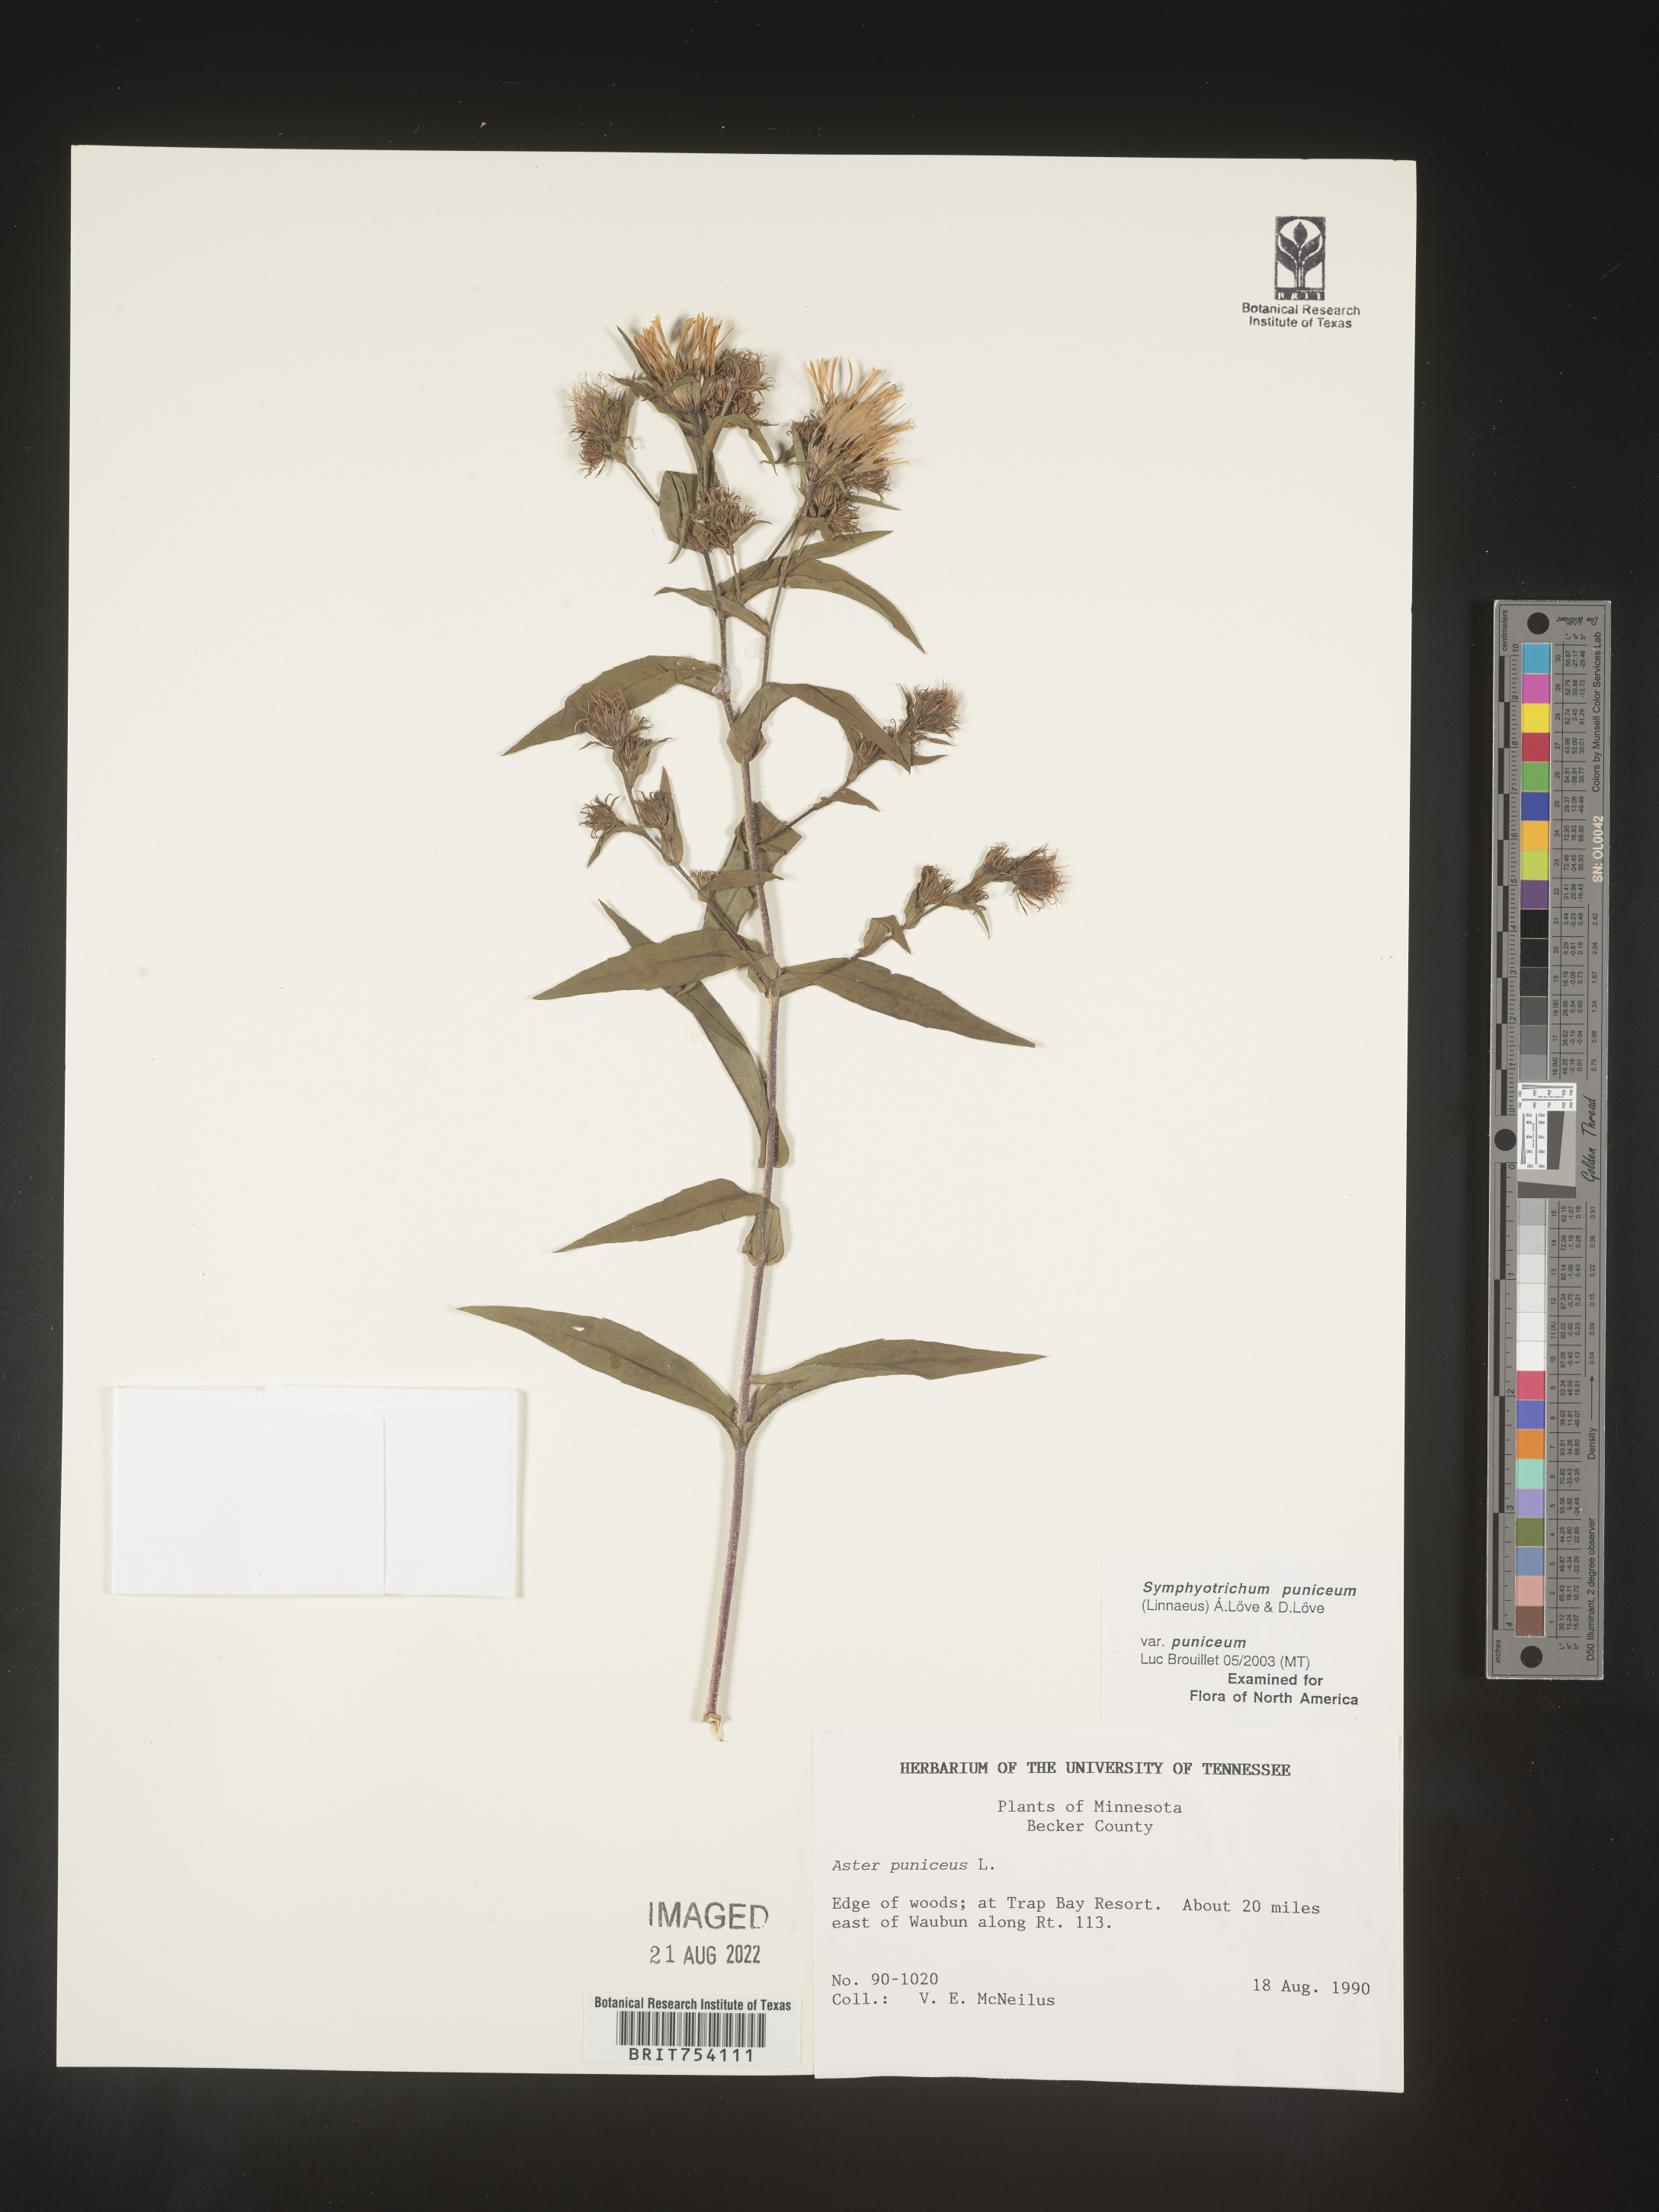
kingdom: Plantae
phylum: Tracheophyta
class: Magnoliopsida
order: Asterales
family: Asteraceae
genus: Symphyotrichum
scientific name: Symphyotrichum puniceum
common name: Bog aster
